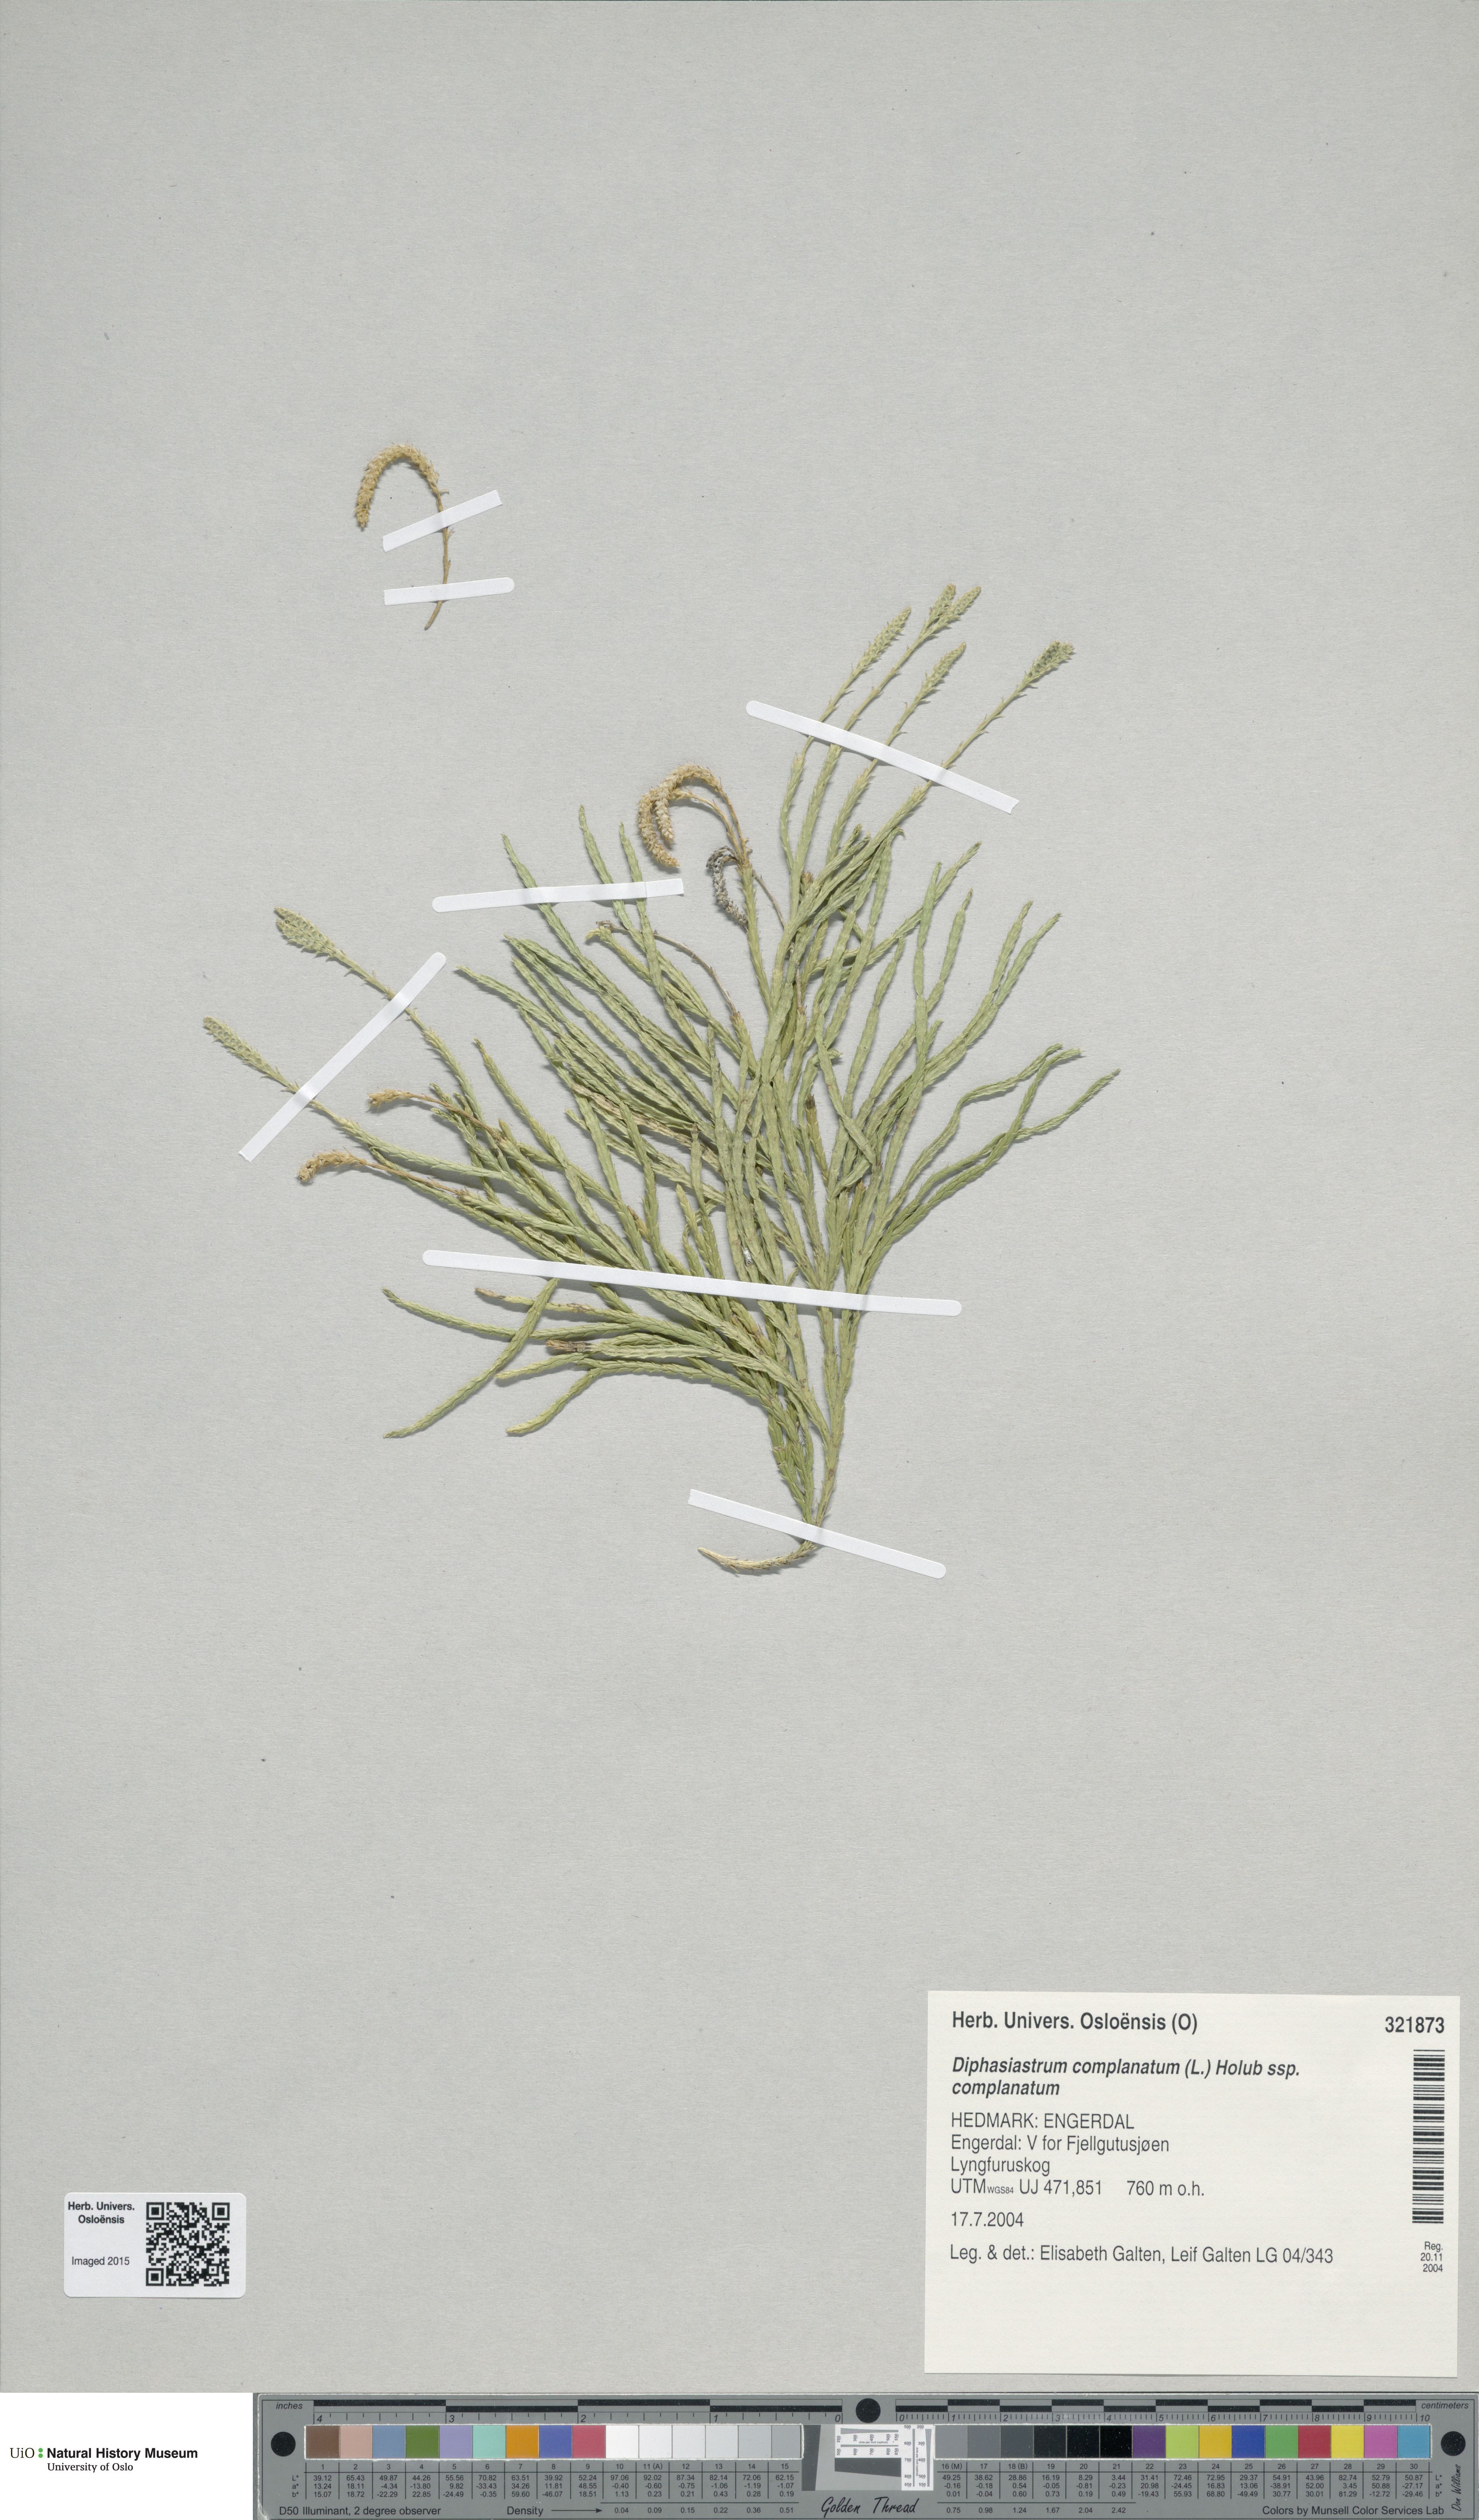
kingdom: Plantae
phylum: Tracheophyta
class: Lycopodiopsida
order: Lycopodiales
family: Lycopodiaceae
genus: Diphasiastrum
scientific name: Diphasiastrum complanatum
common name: Northern running-pine
